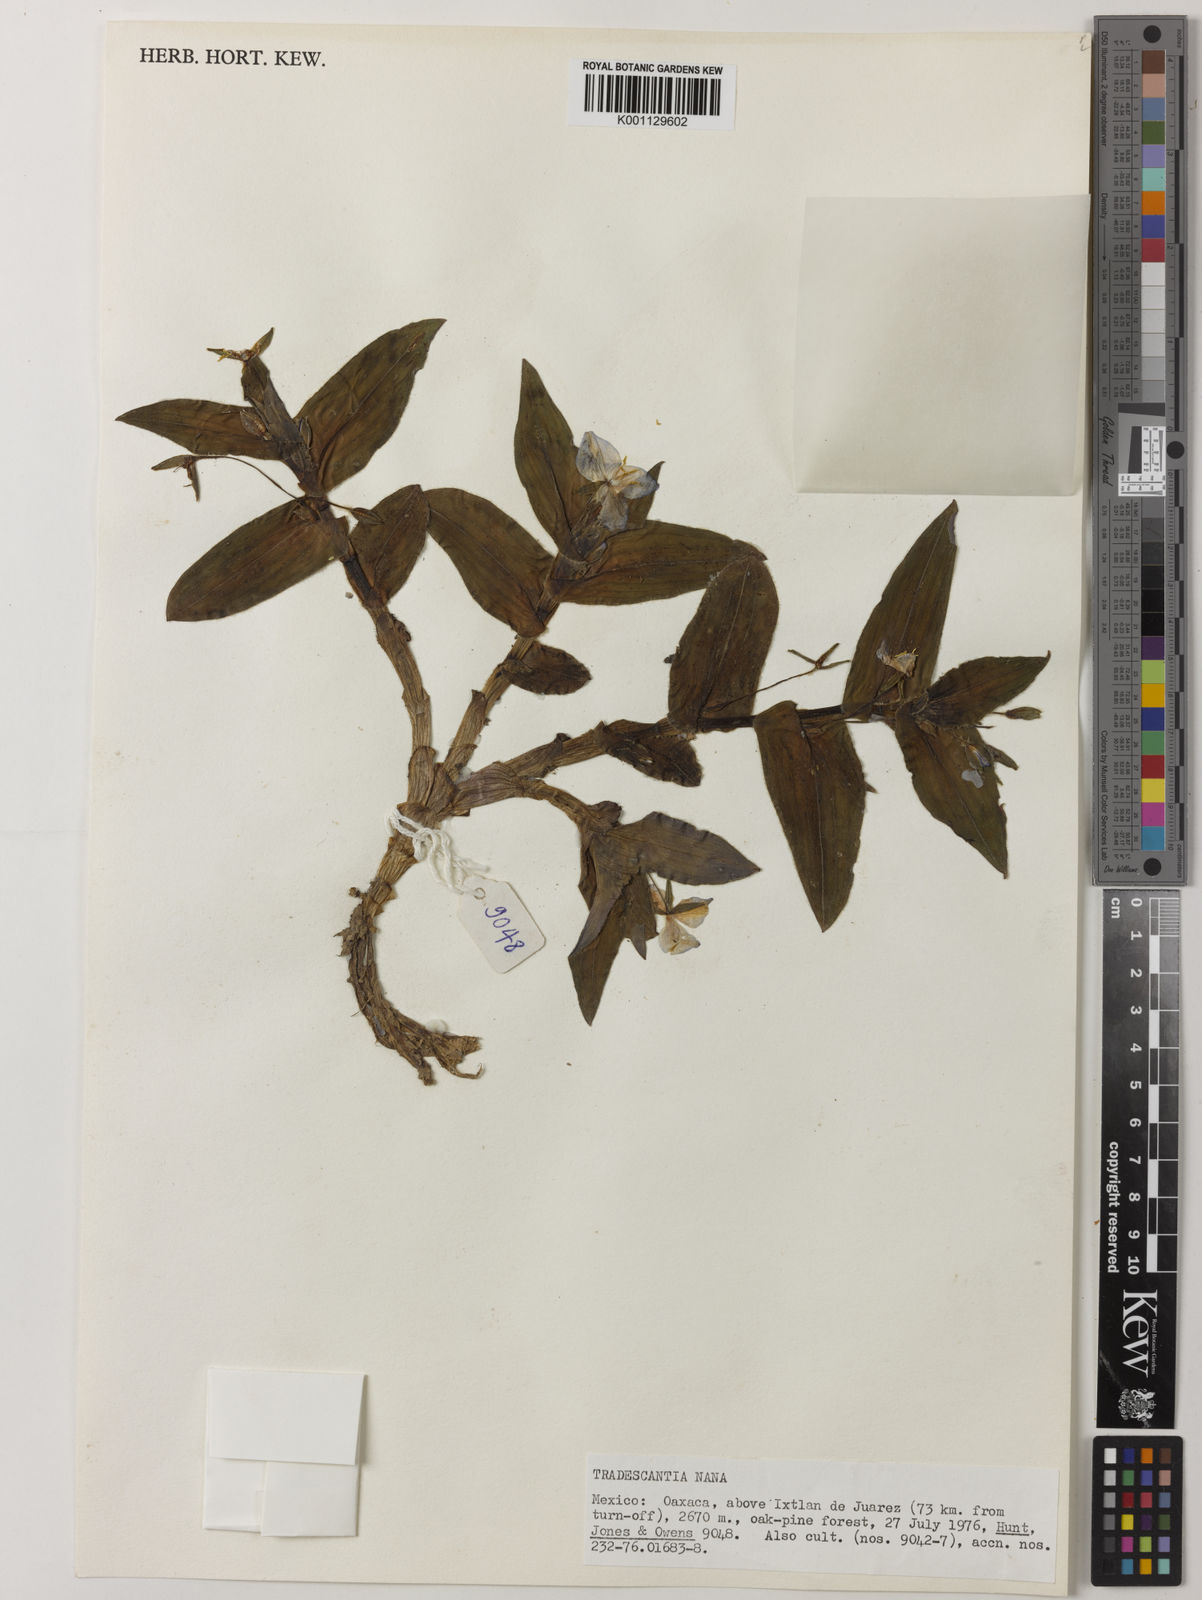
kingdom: Plantae
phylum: Tracheophyta
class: Liliopsida
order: Commelinales
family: Commelinaceae
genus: Matudanthus
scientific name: Matudanthus nanus
